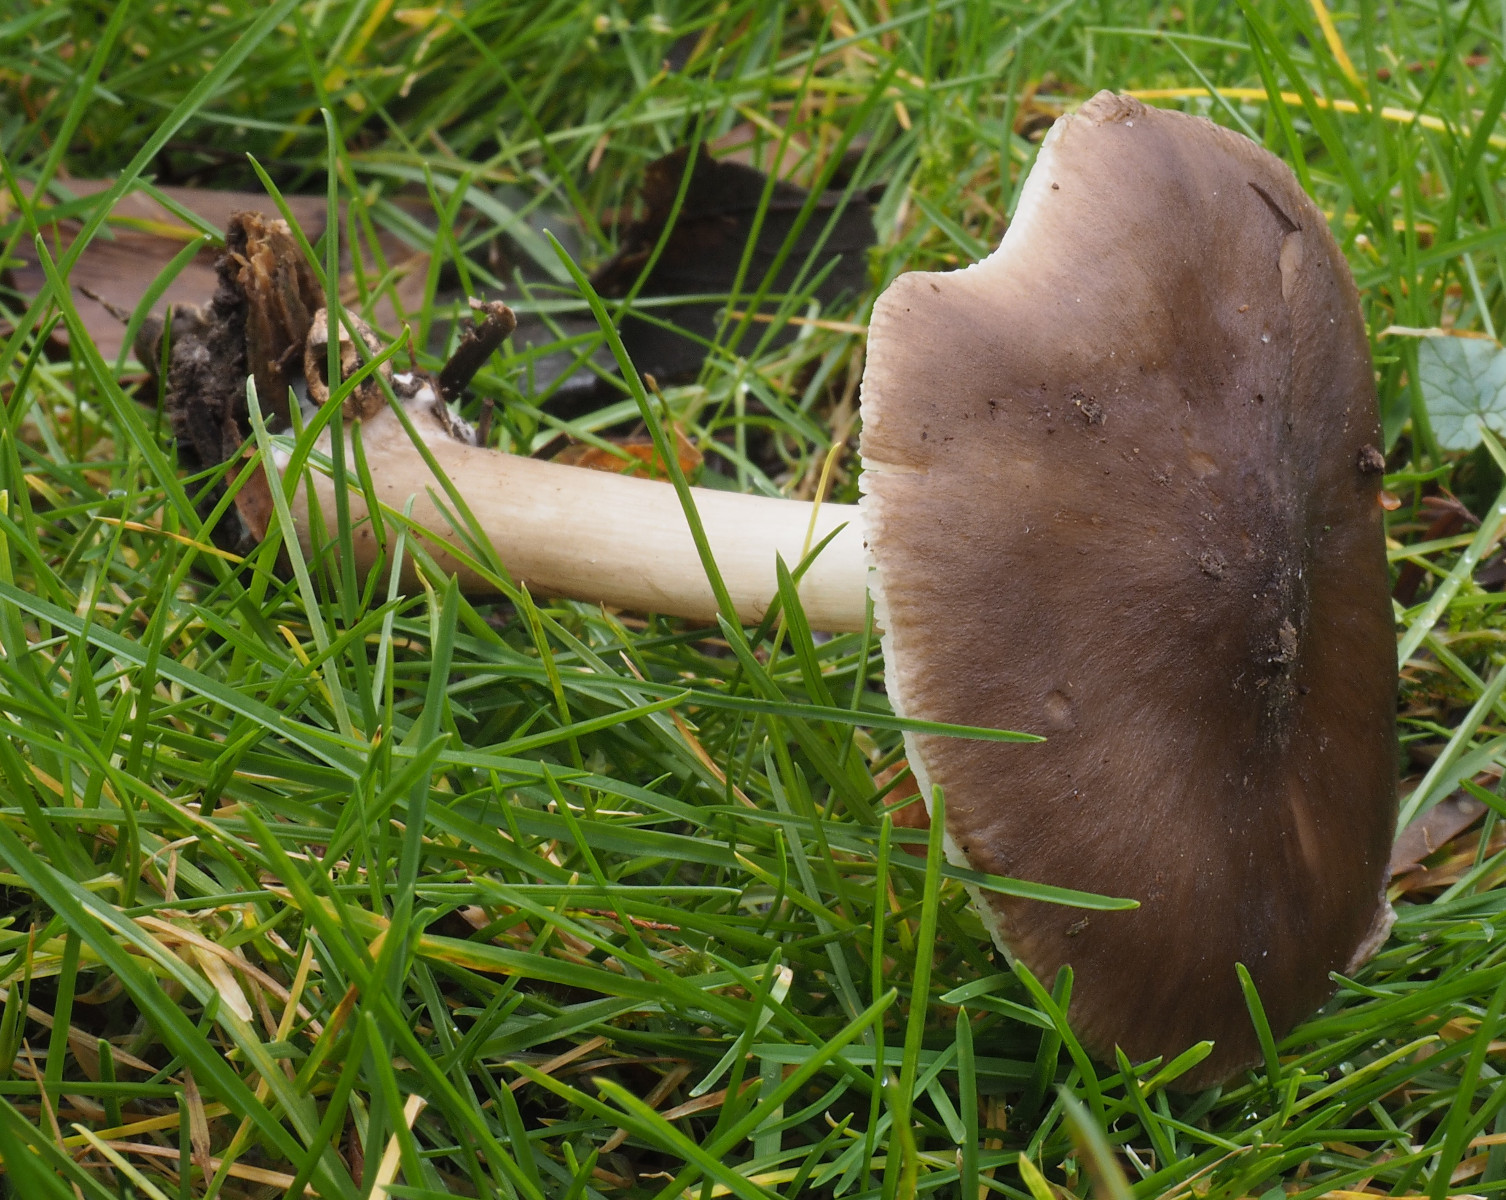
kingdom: Fungi
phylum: Basidiomycota
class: Agaricomycetes
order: Agaricales
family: Pluteaceae
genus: Pluteus
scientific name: Pluteus
